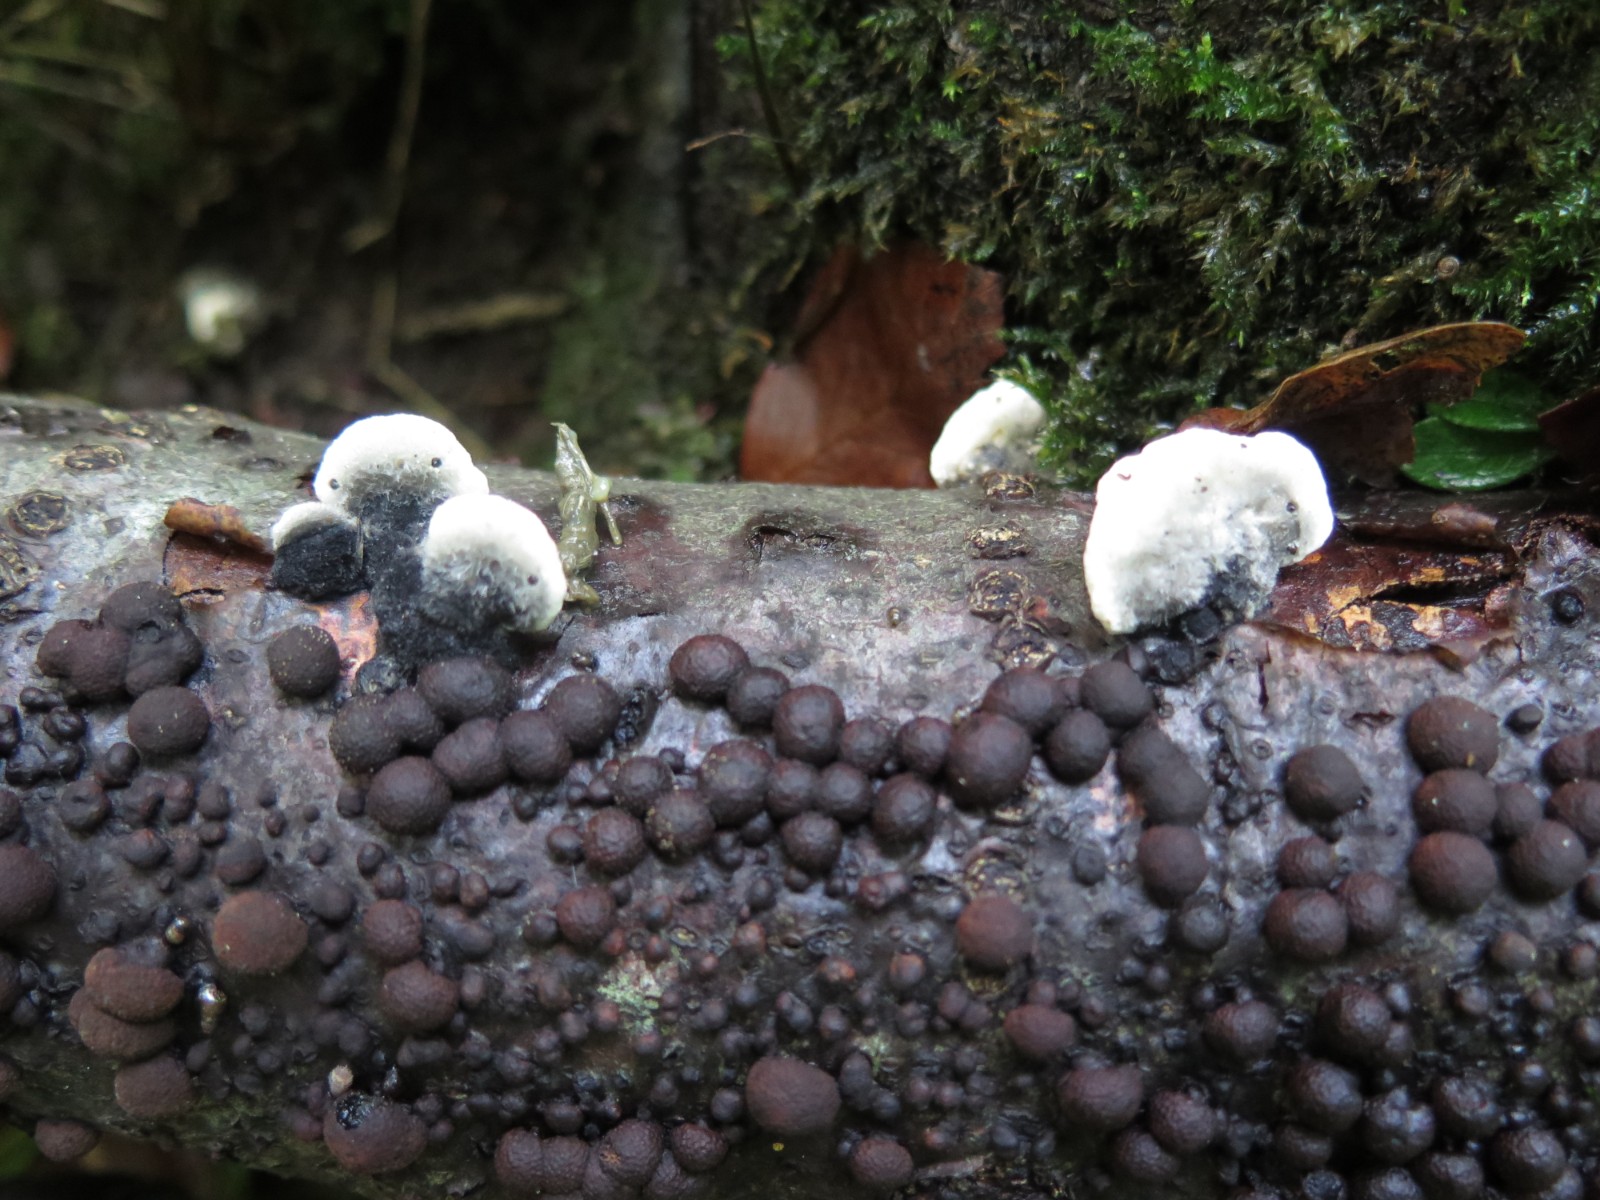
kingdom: Fungi
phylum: Basidiomycota
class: Agaricomycetes
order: Polyporales
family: Polyporaceae
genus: Cyanosporus
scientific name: Cyanosporus caesius
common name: blålig kødporesvamp
